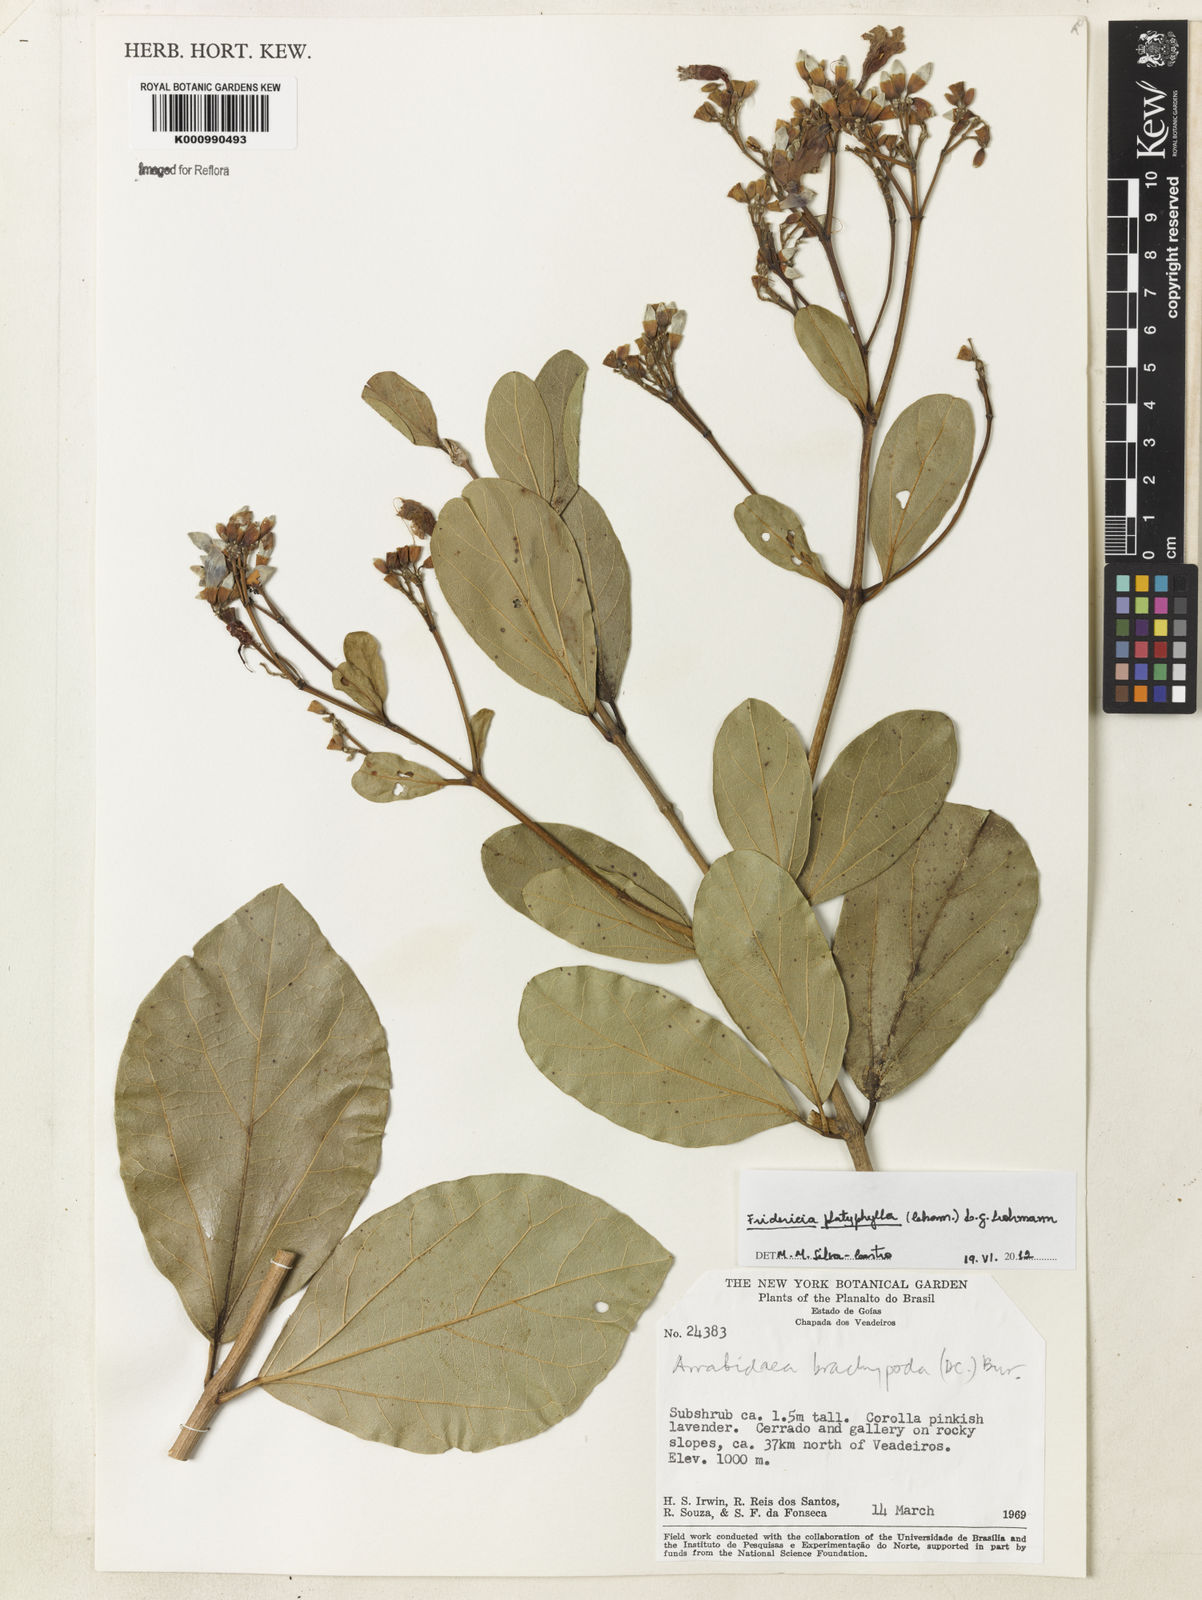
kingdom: Plantae
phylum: Tracheophyta
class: Magnoliopsida
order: Lamiales
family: Bignoniaceae
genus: Fridericia
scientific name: Fridericia platyphylla
